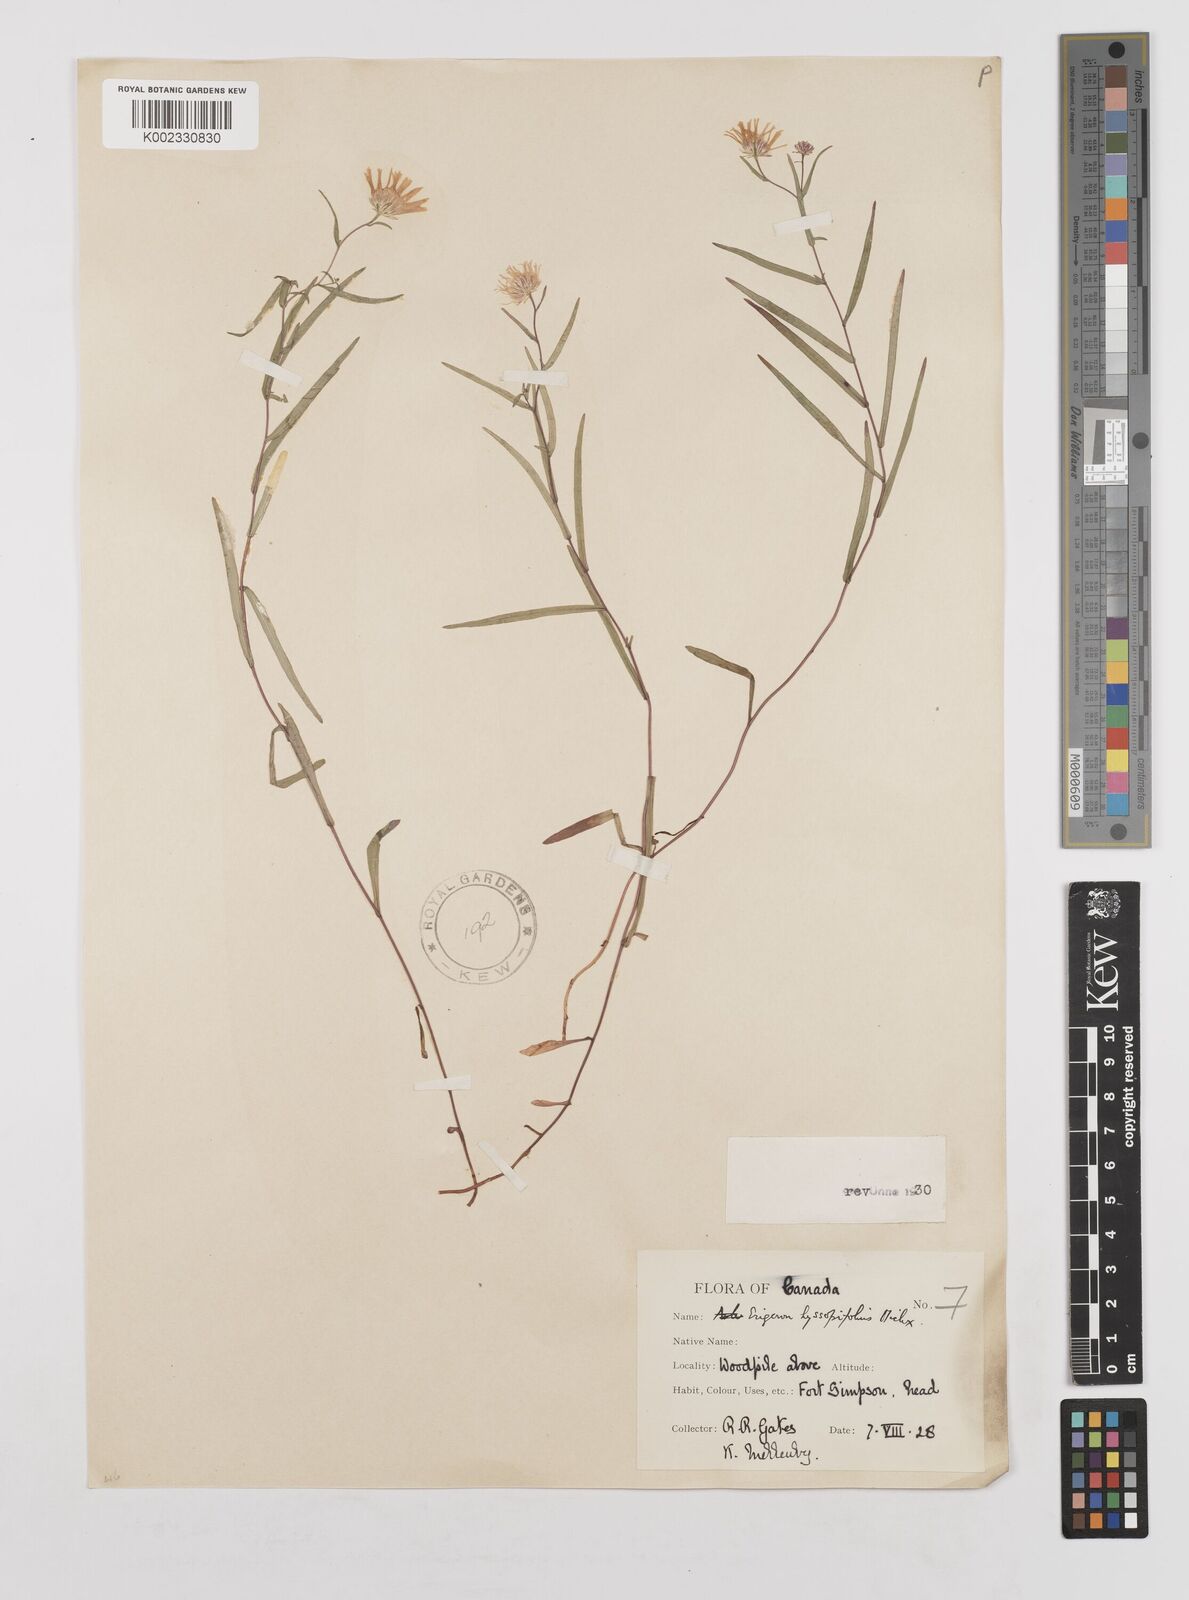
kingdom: Plantae
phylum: Tracheophyta
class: Magnoliopsida
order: Asterales
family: Asteraceae
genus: Erigeron
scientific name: Erigeron hyssopifolius
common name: Daisy fleabane
